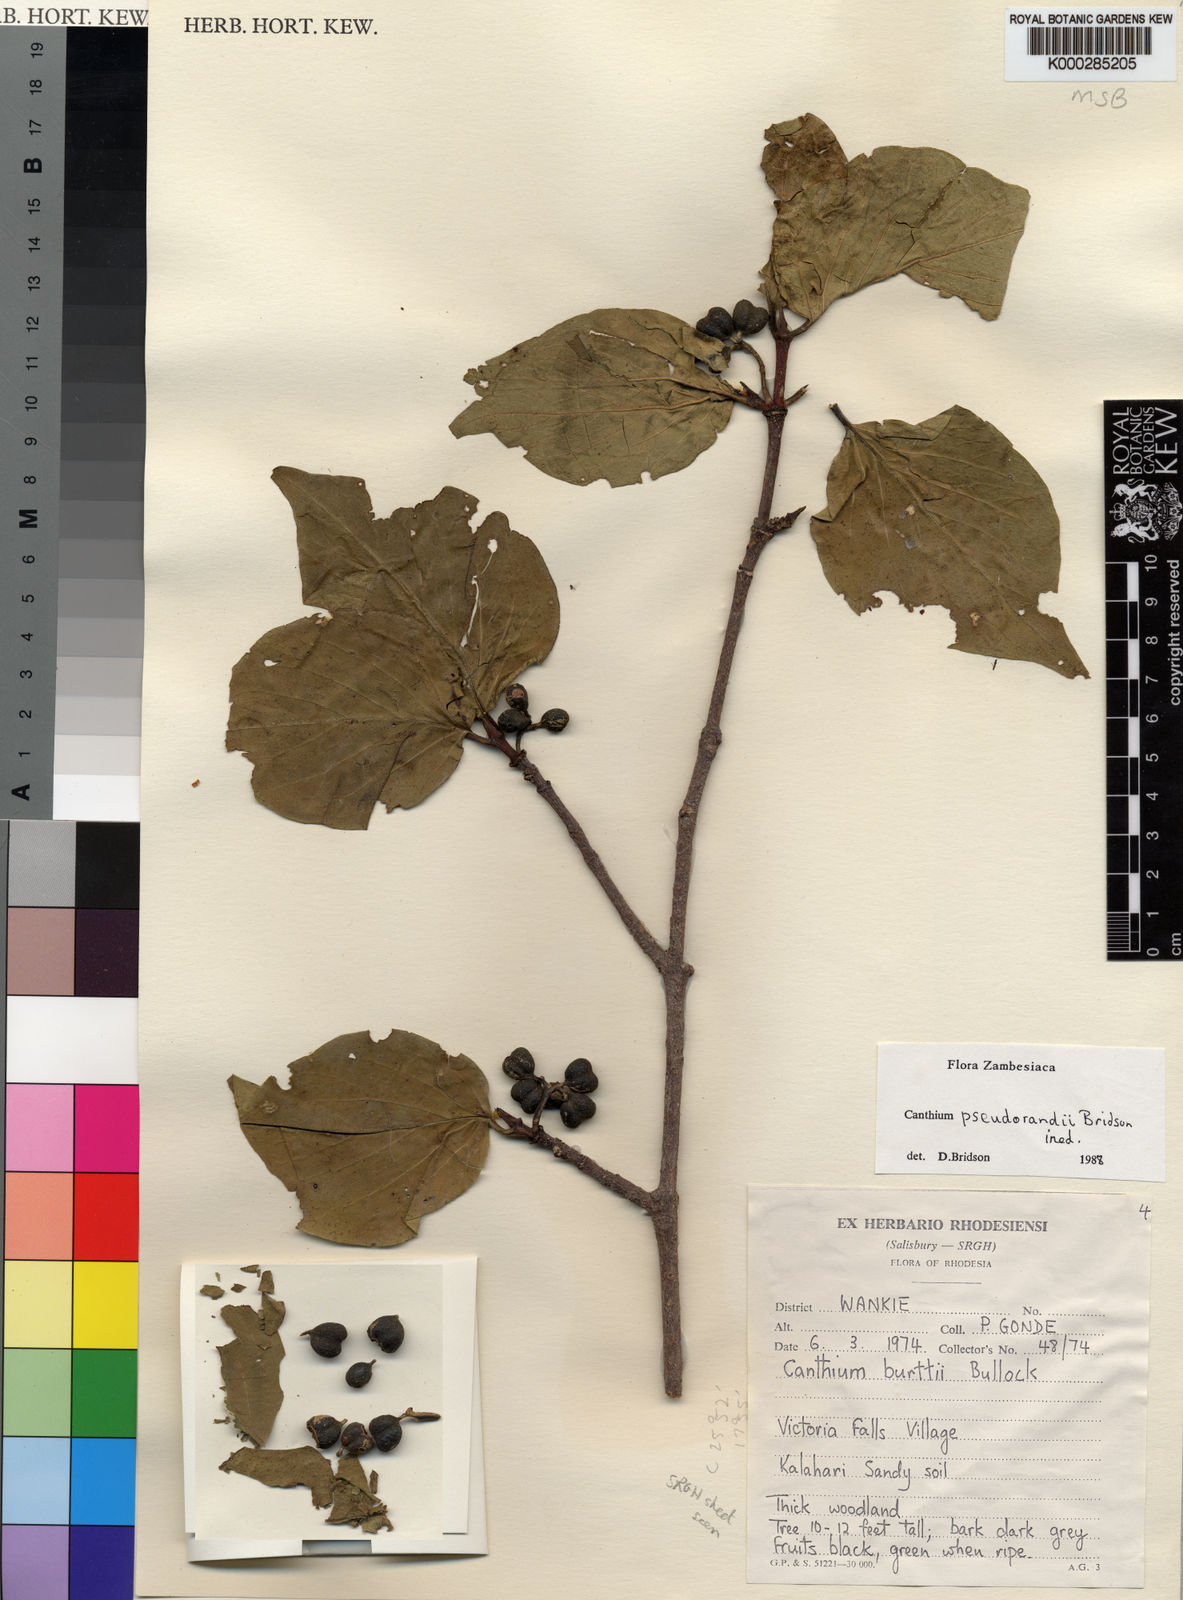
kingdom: Plantae
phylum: Tracheophyta
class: Magnoliopsida
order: Gentianales
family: Rubiaceae
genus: Afrocanthium
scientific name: Afrocanthium pseudorandii
